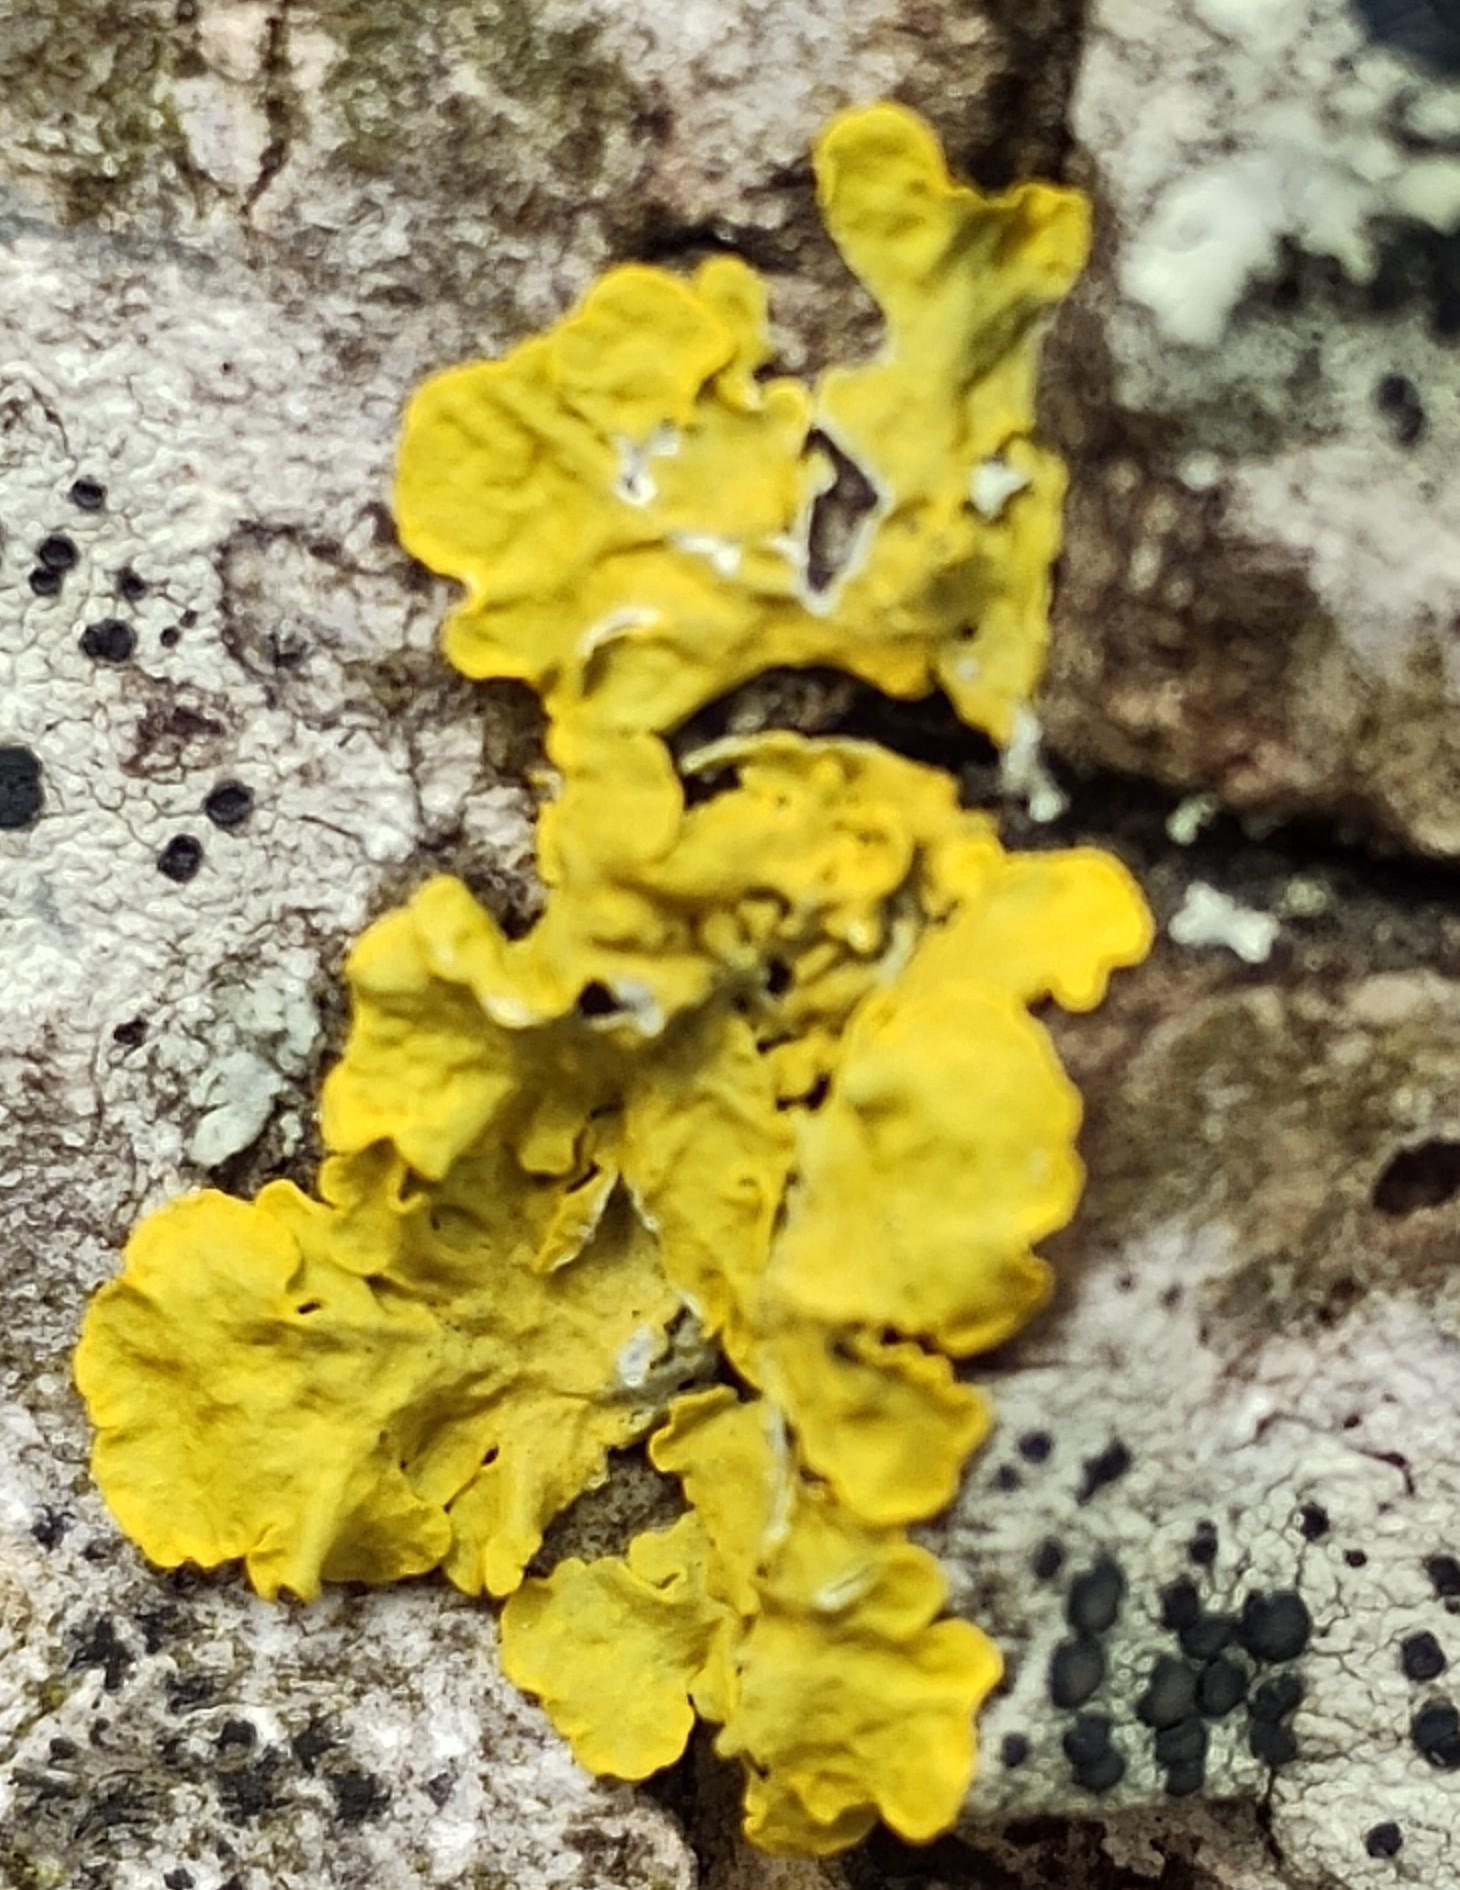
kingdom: Fungi
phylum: Ascomycota
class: Lecanoromycetes
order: Teloschistales
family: Teloschistaceae
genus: Xanthoria
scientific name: Xanthoria parietina
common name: Almindelig væggelav
